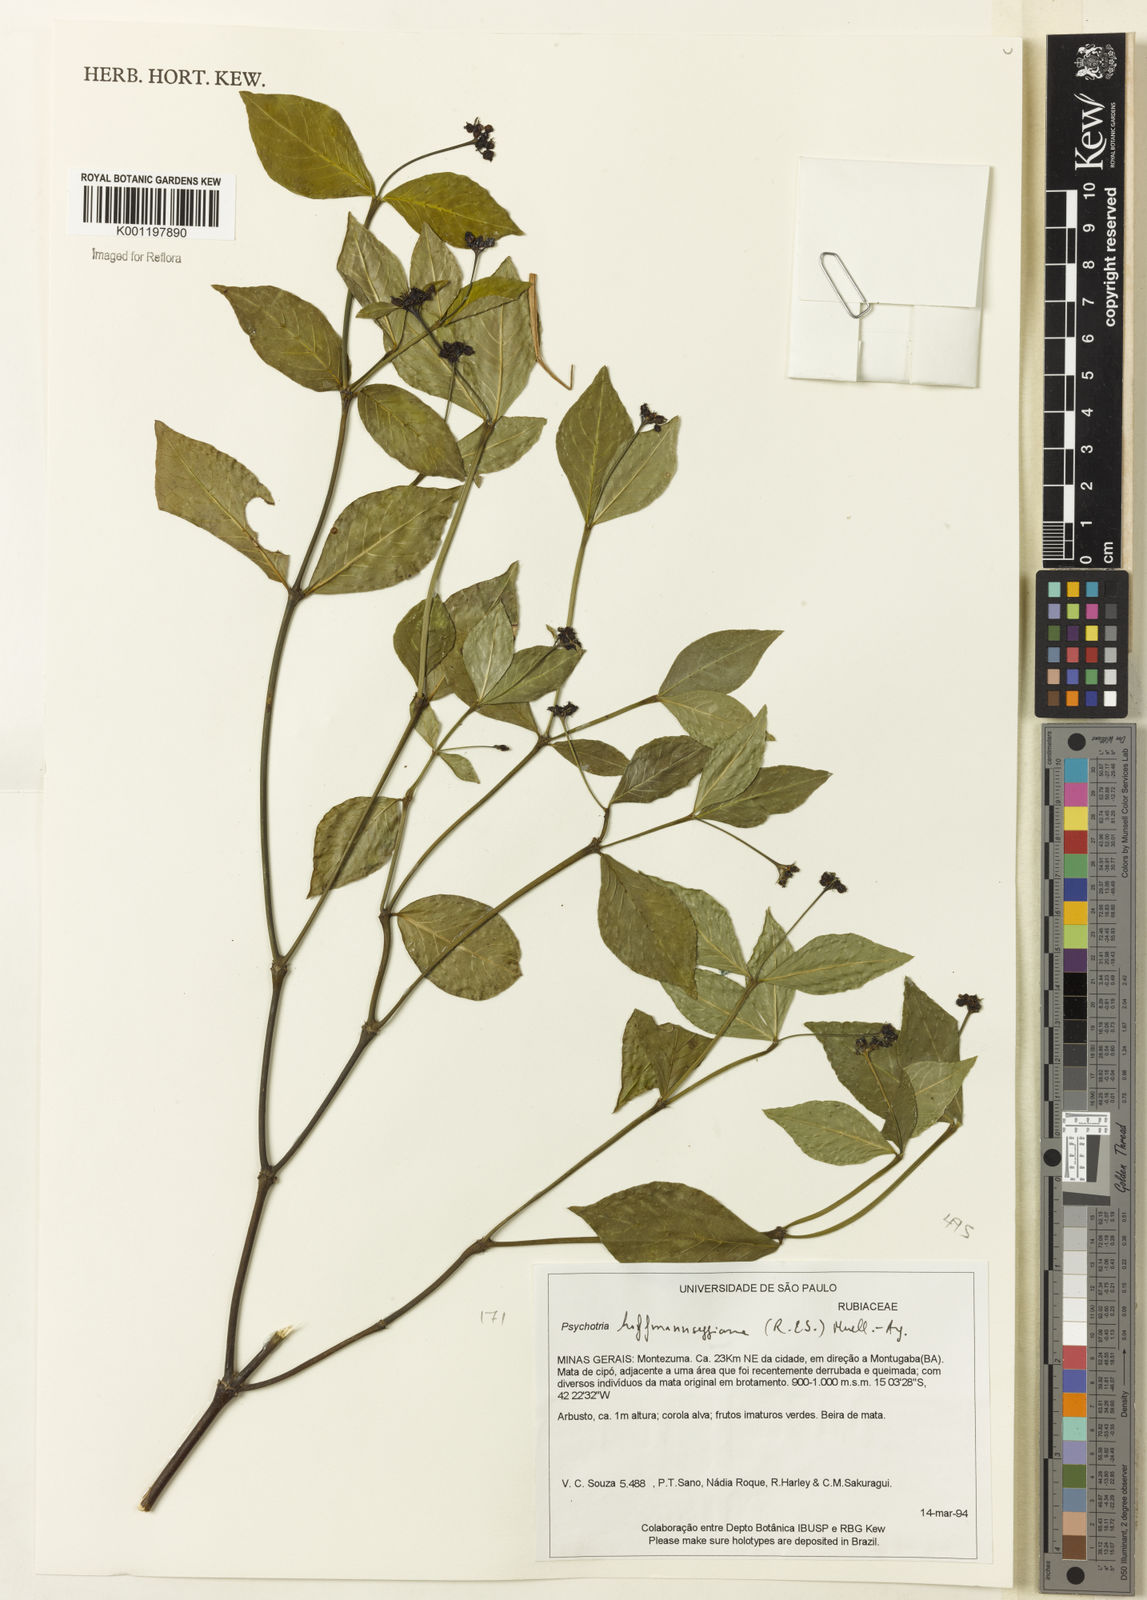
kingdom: Plantae
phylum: Tracheophyta
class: Magnoliopsida
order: Gentianales
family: Rubiaceae
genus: Psychotria
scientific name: Psychotria
